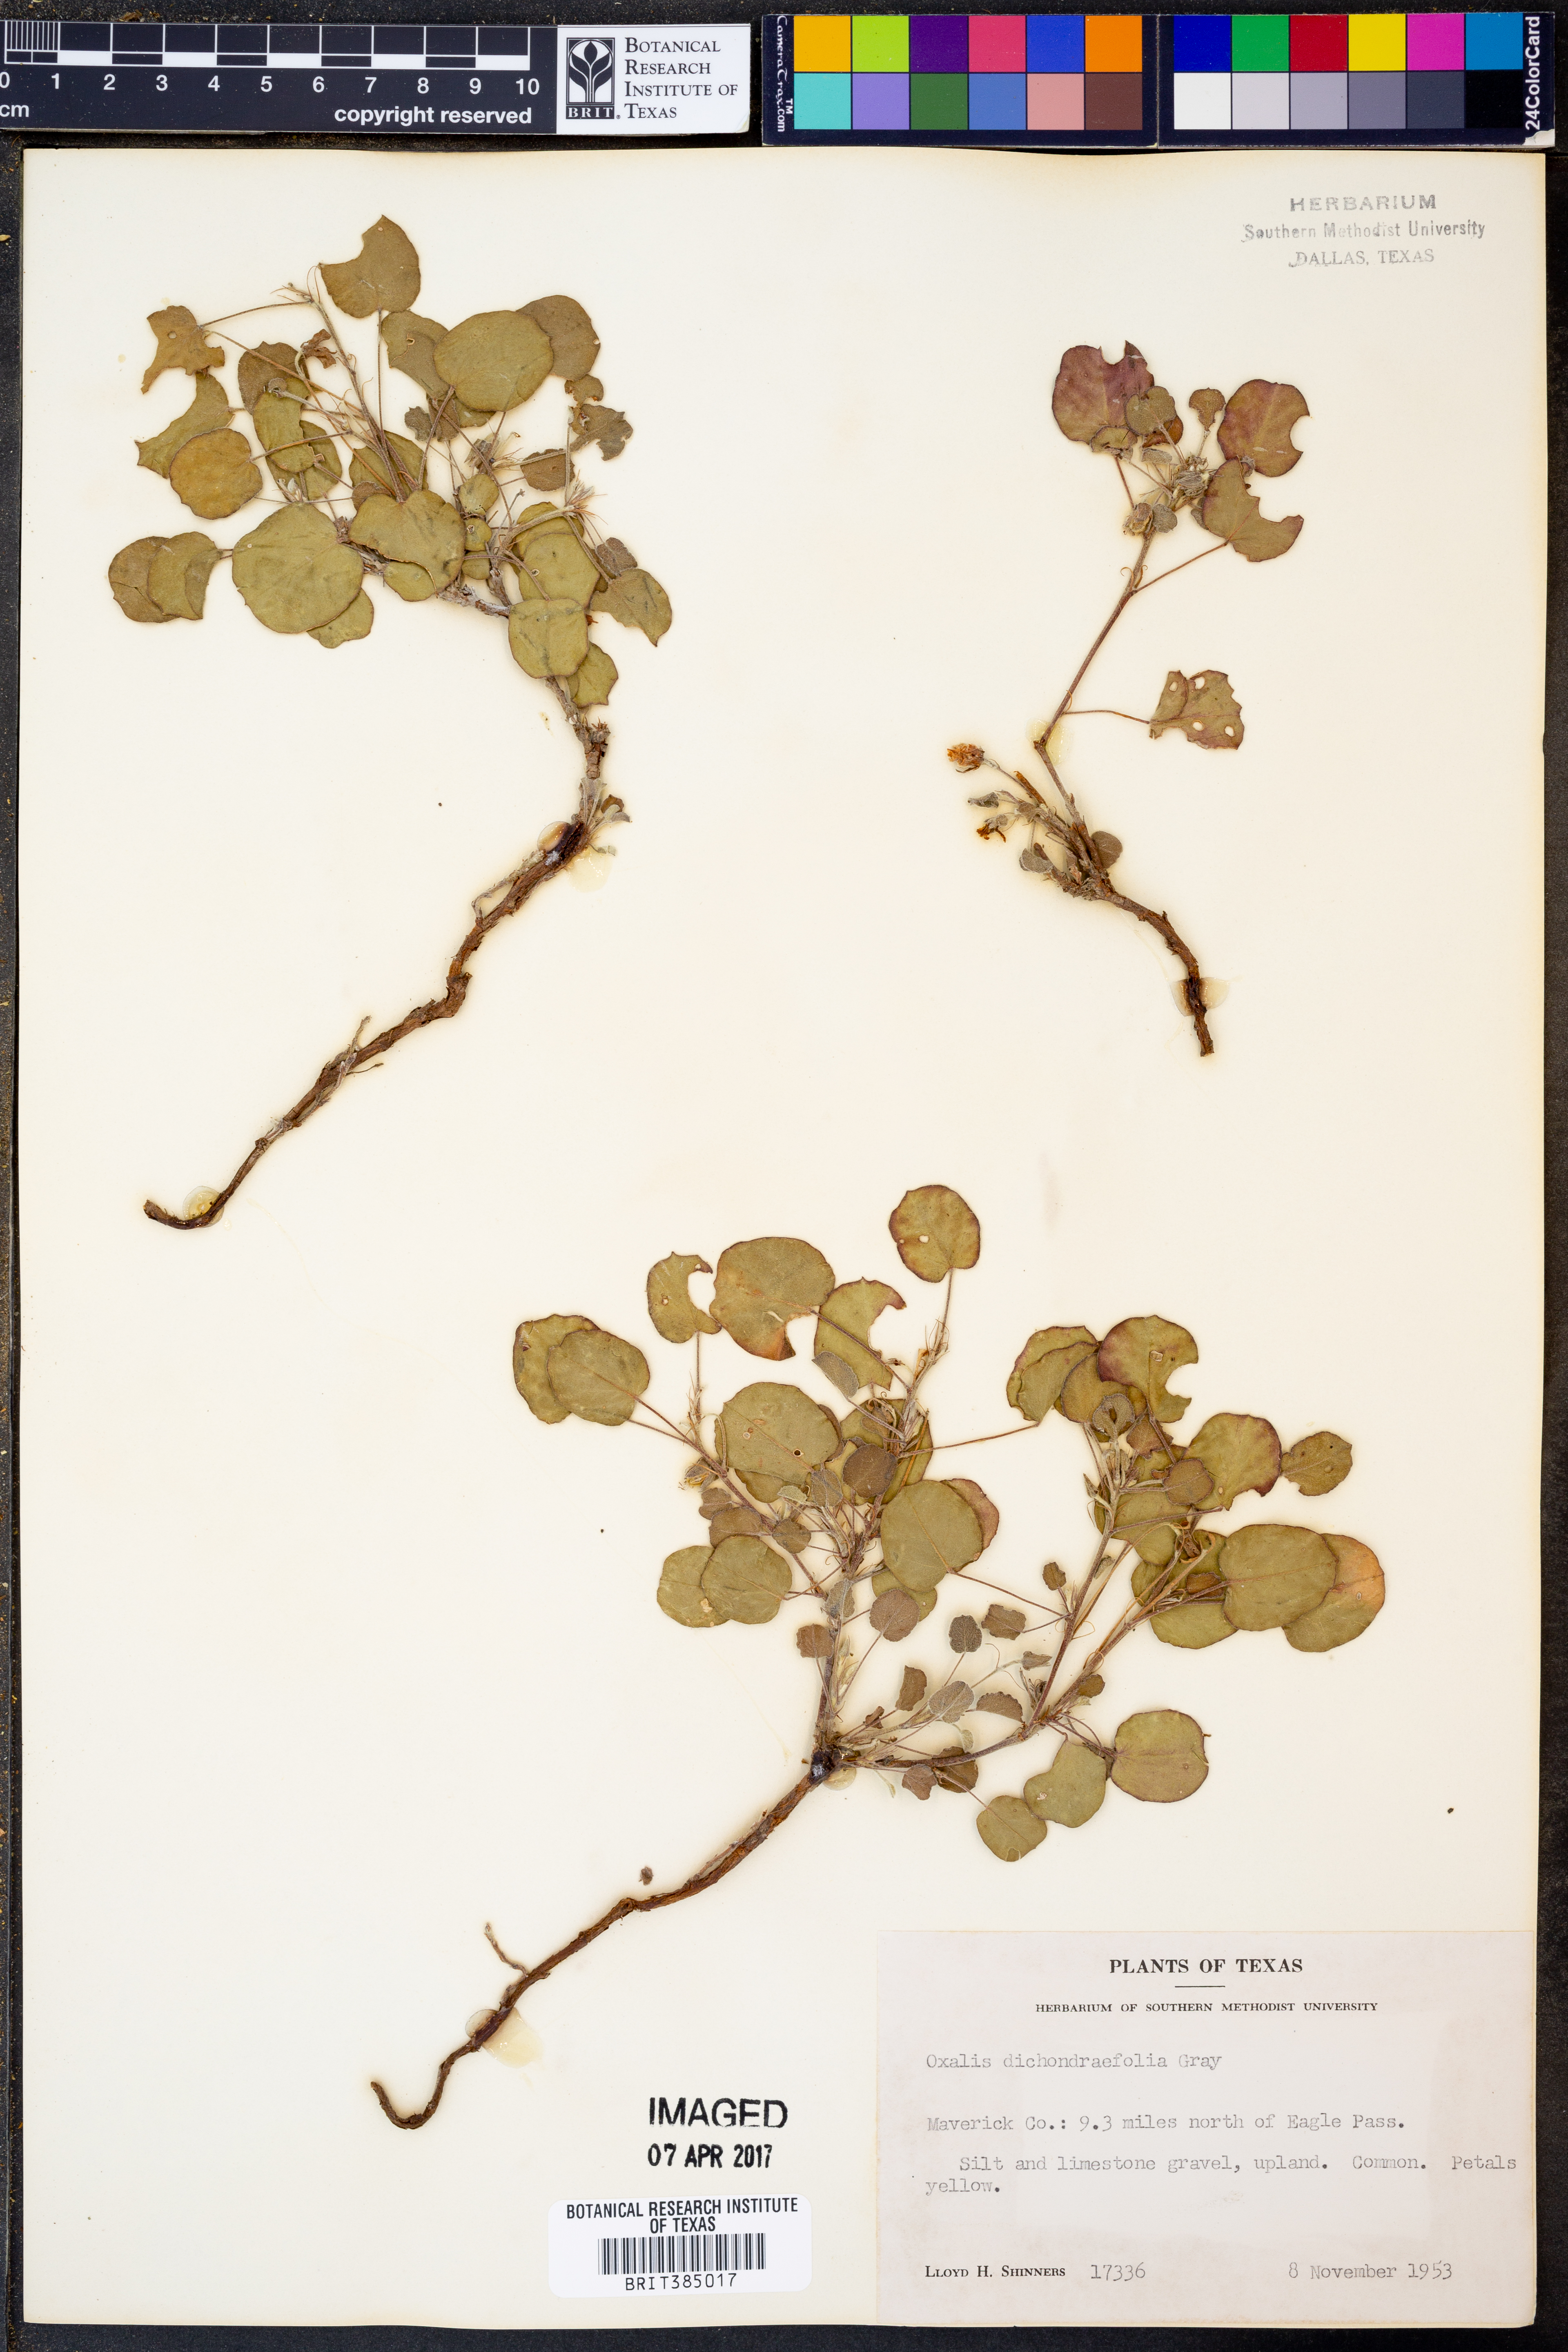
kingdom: Plantae
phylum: Tracheophyta
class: Magnoliopsida
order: Oxalidales
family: Oxalidaceae
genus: Oxalis
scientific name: Oxalis dichondrifolia
